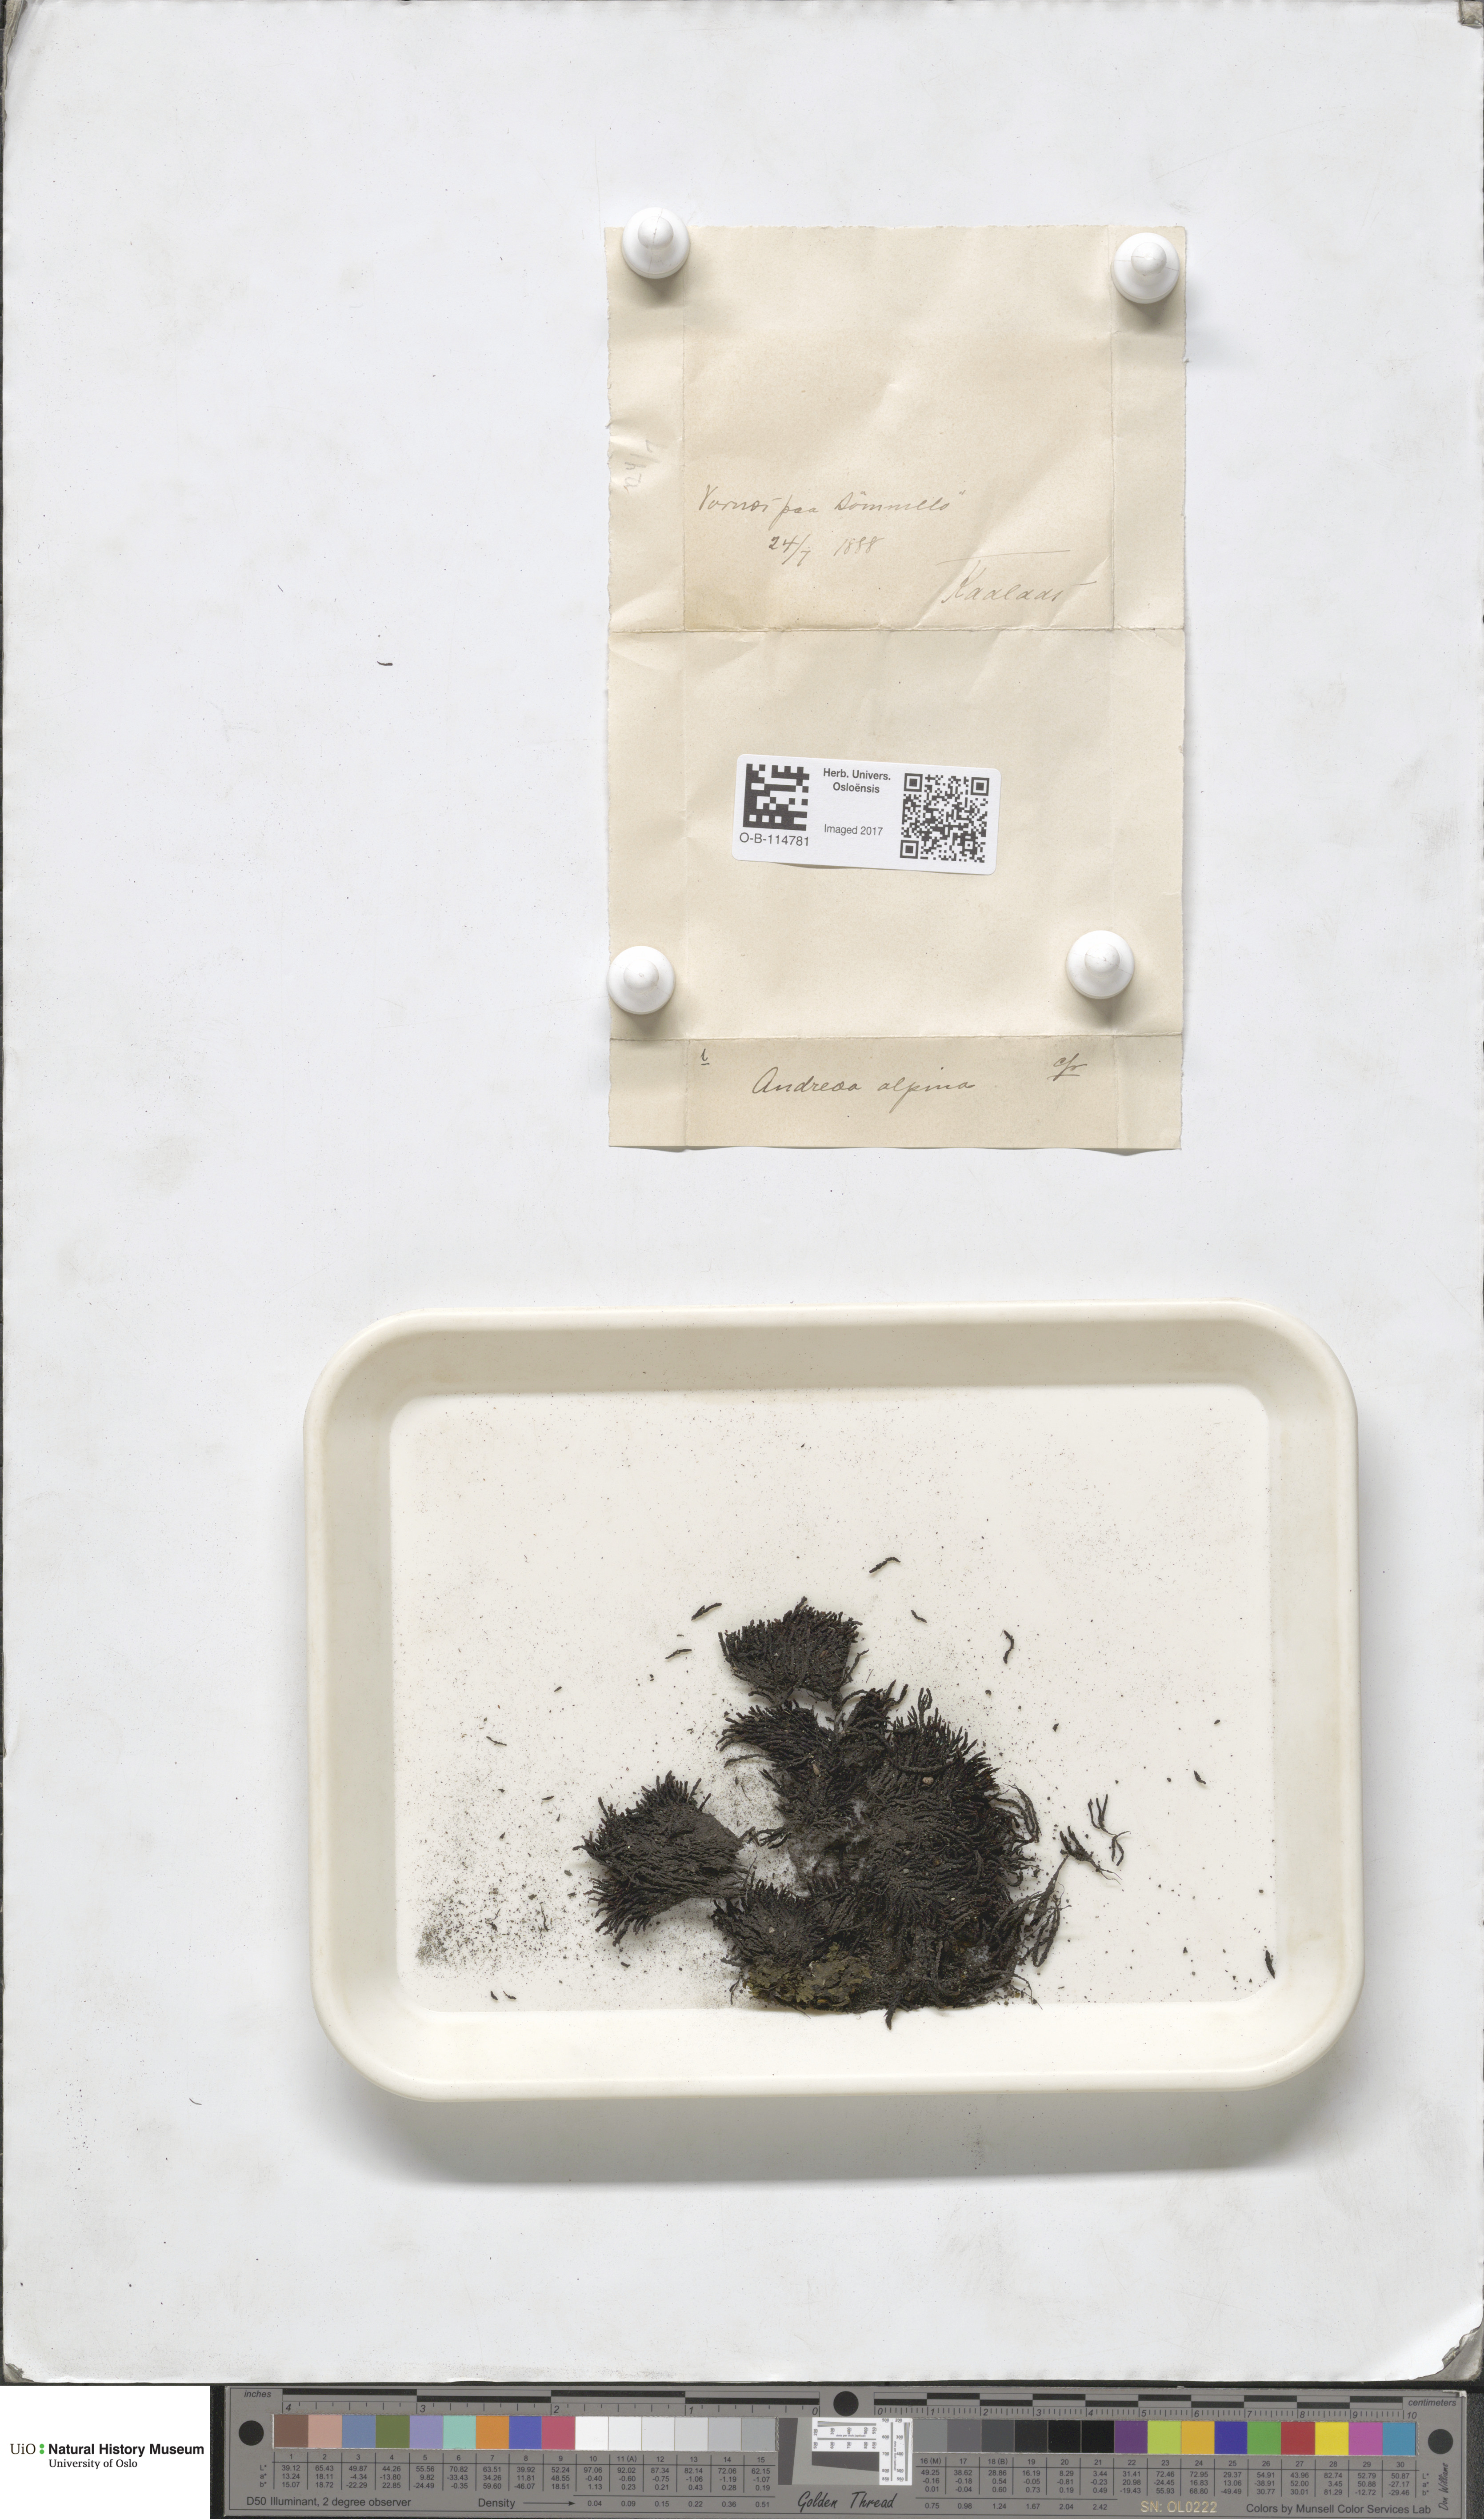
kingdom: Plantae
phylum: Bryophyta
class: Andreaeopsida
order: Andreaeales
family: Andreaeaceae
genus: Andreaea
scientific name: Andreaea hookeri
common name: Alpine rock-moss
